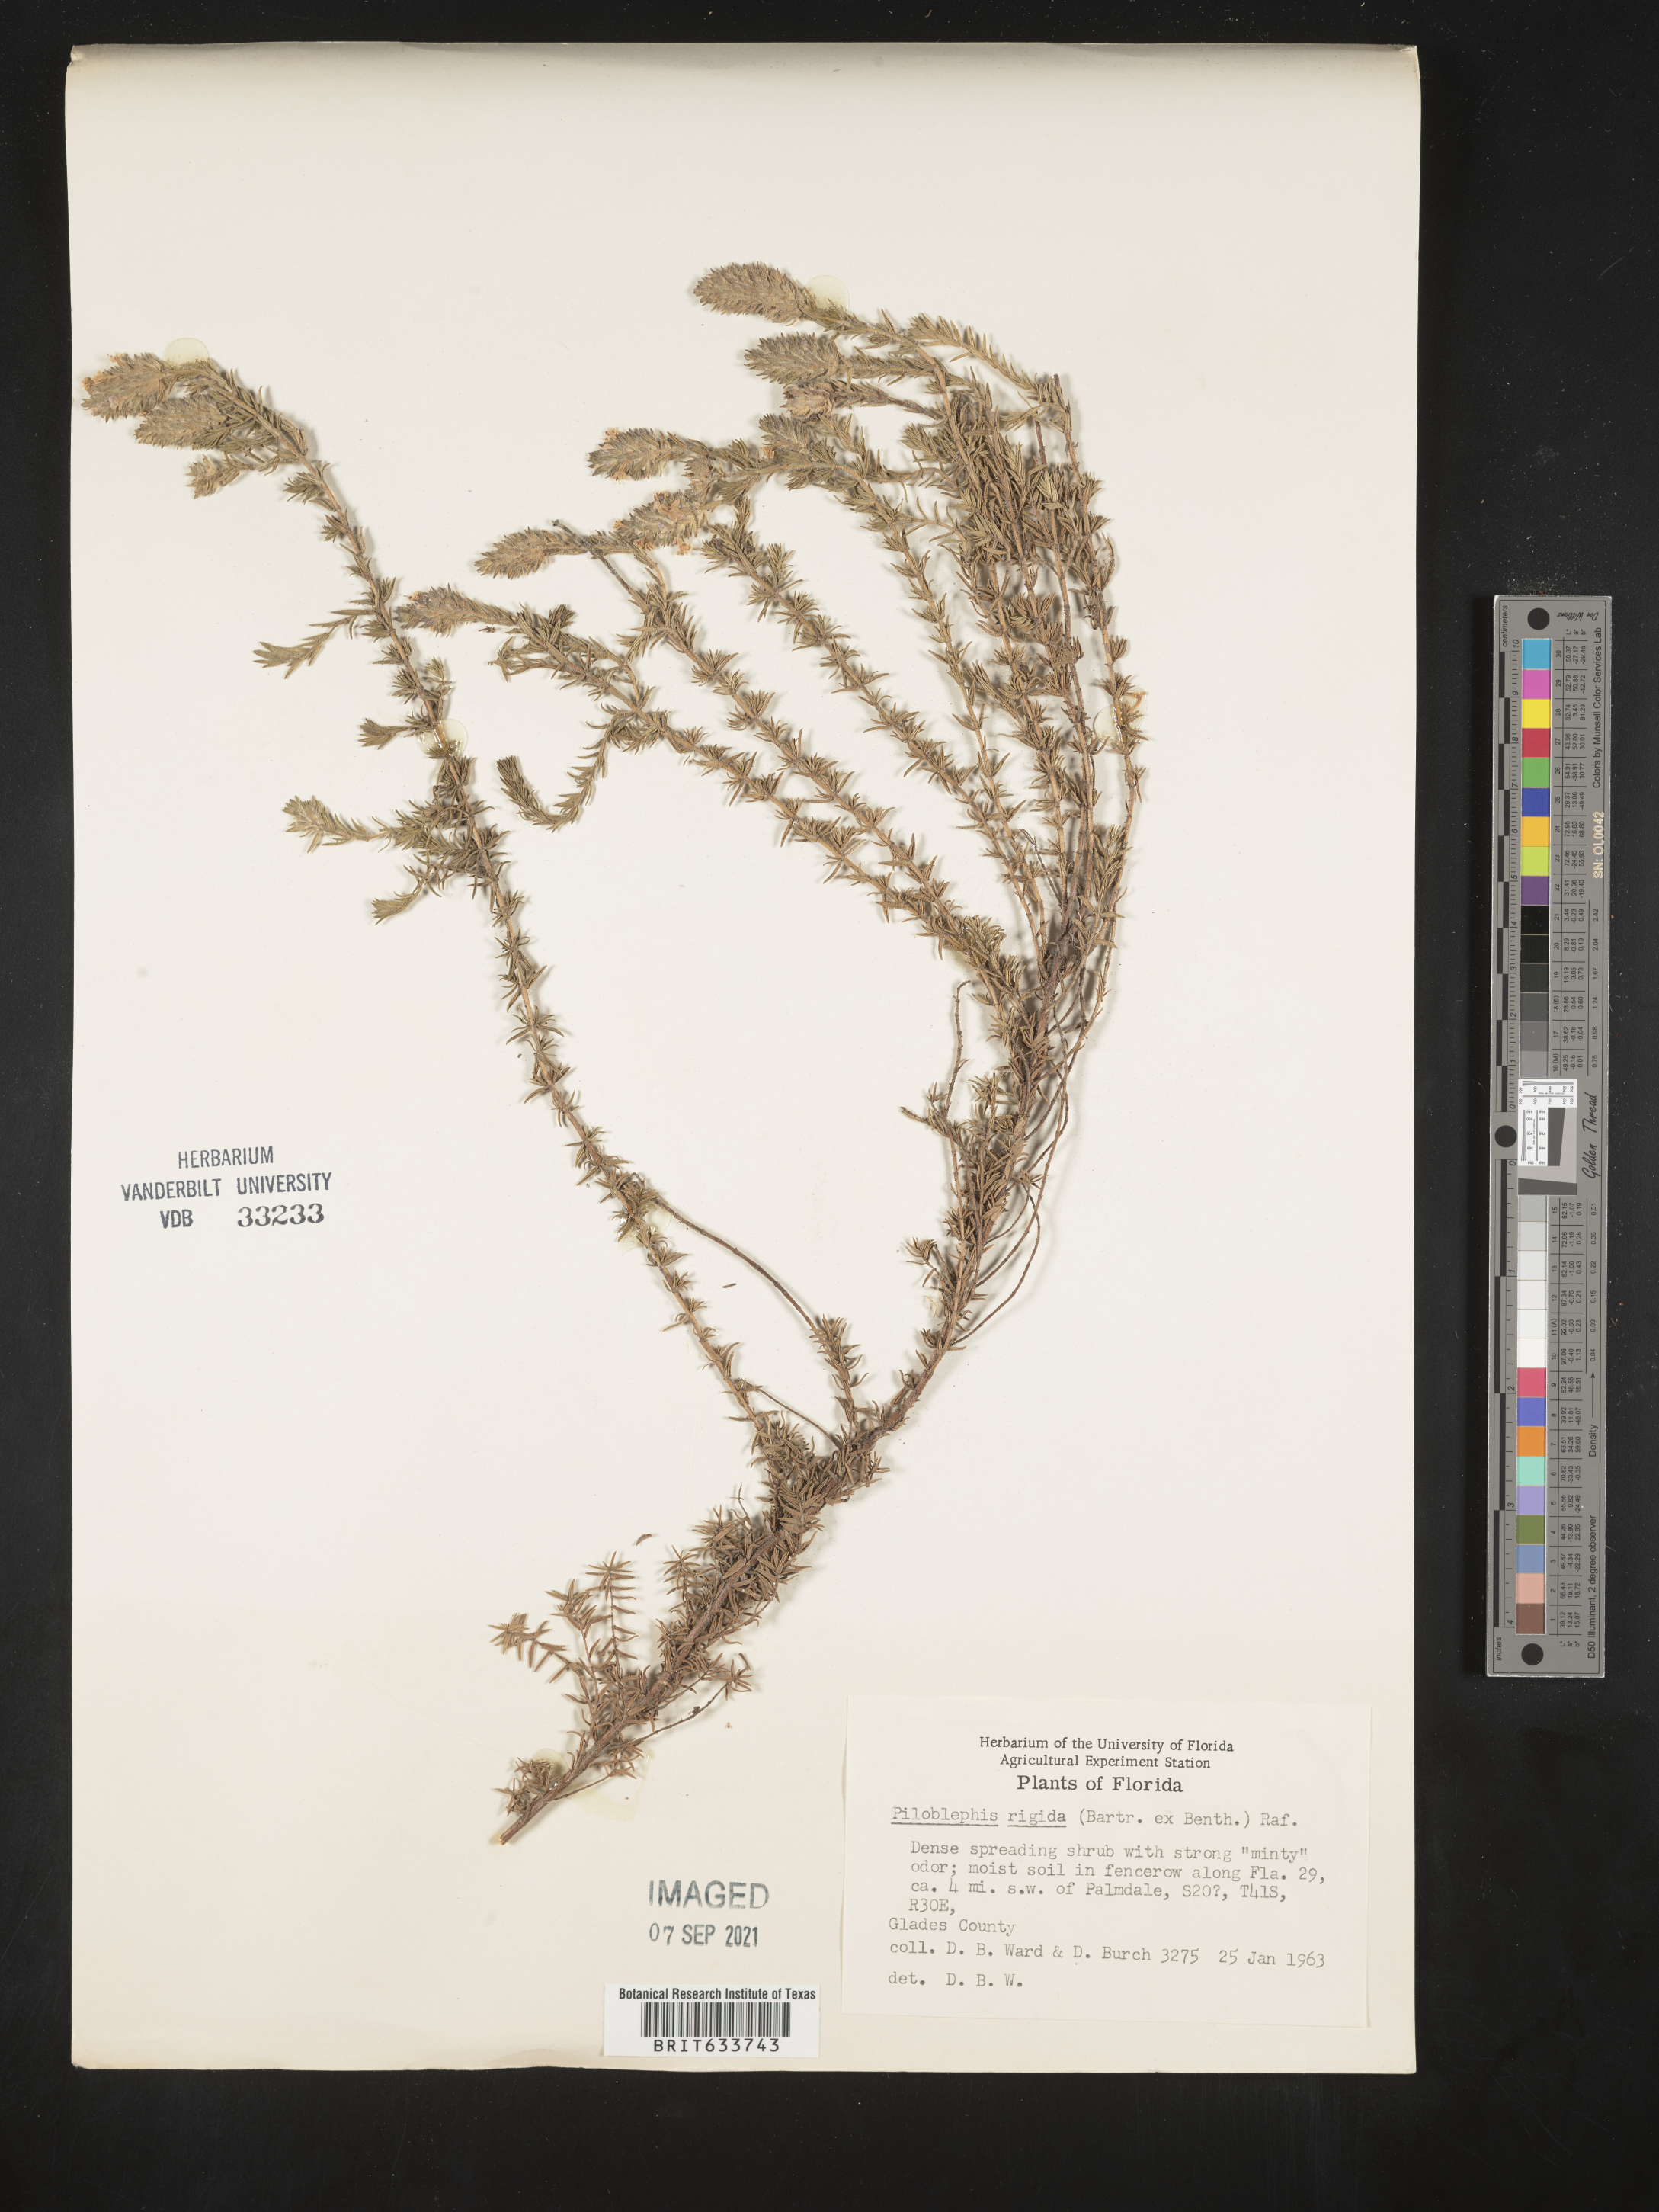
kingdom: Plantae
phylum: Tracheophyta
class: Magnoliopsida
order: Lamiales
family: Lamiaceae
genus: Piloblephis
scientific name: Piloblephis rigida
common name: Wild pennyroyal
